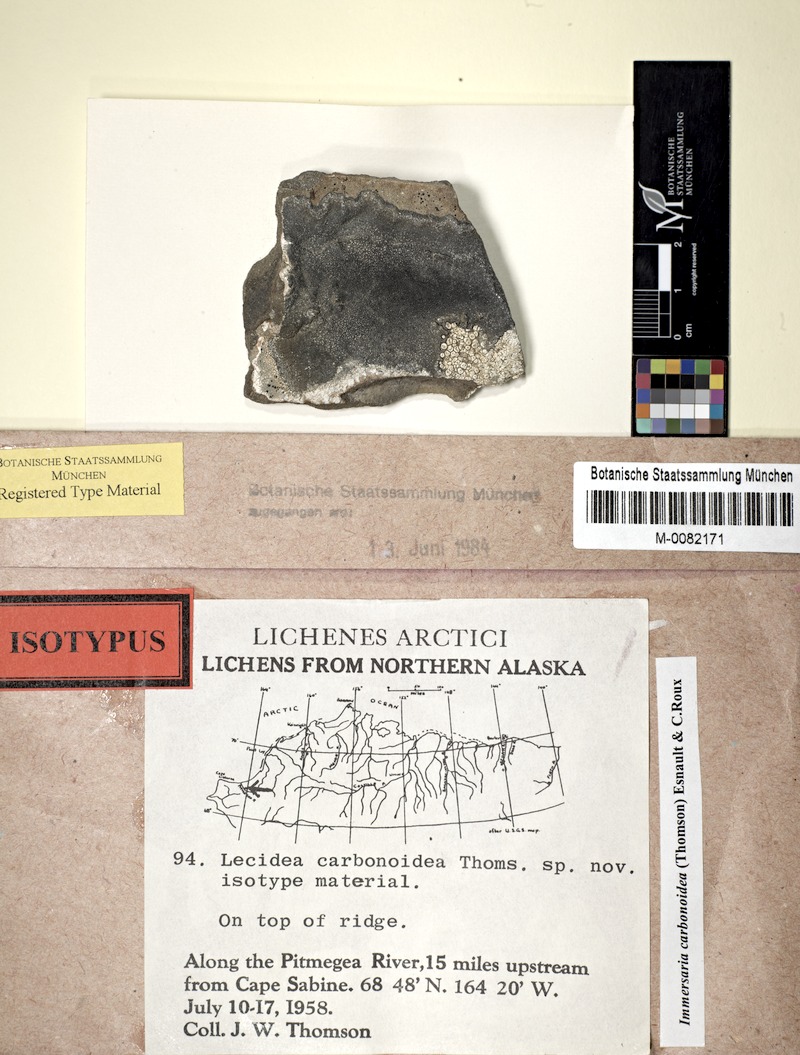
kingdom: Fungi
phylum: Ascomycota
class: Lecanoromycetes
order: Lecideales
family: Lecideaceae
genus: Immersaria
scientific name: Immersaria
